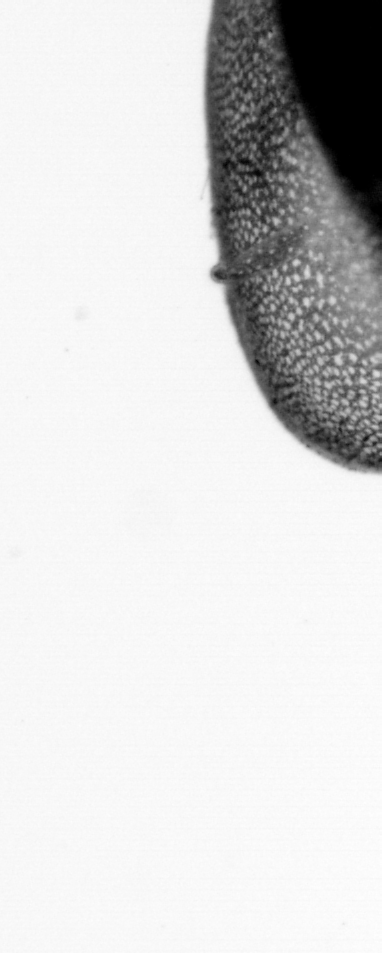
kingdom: Animalia
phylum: Chordata
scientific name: Chordata
